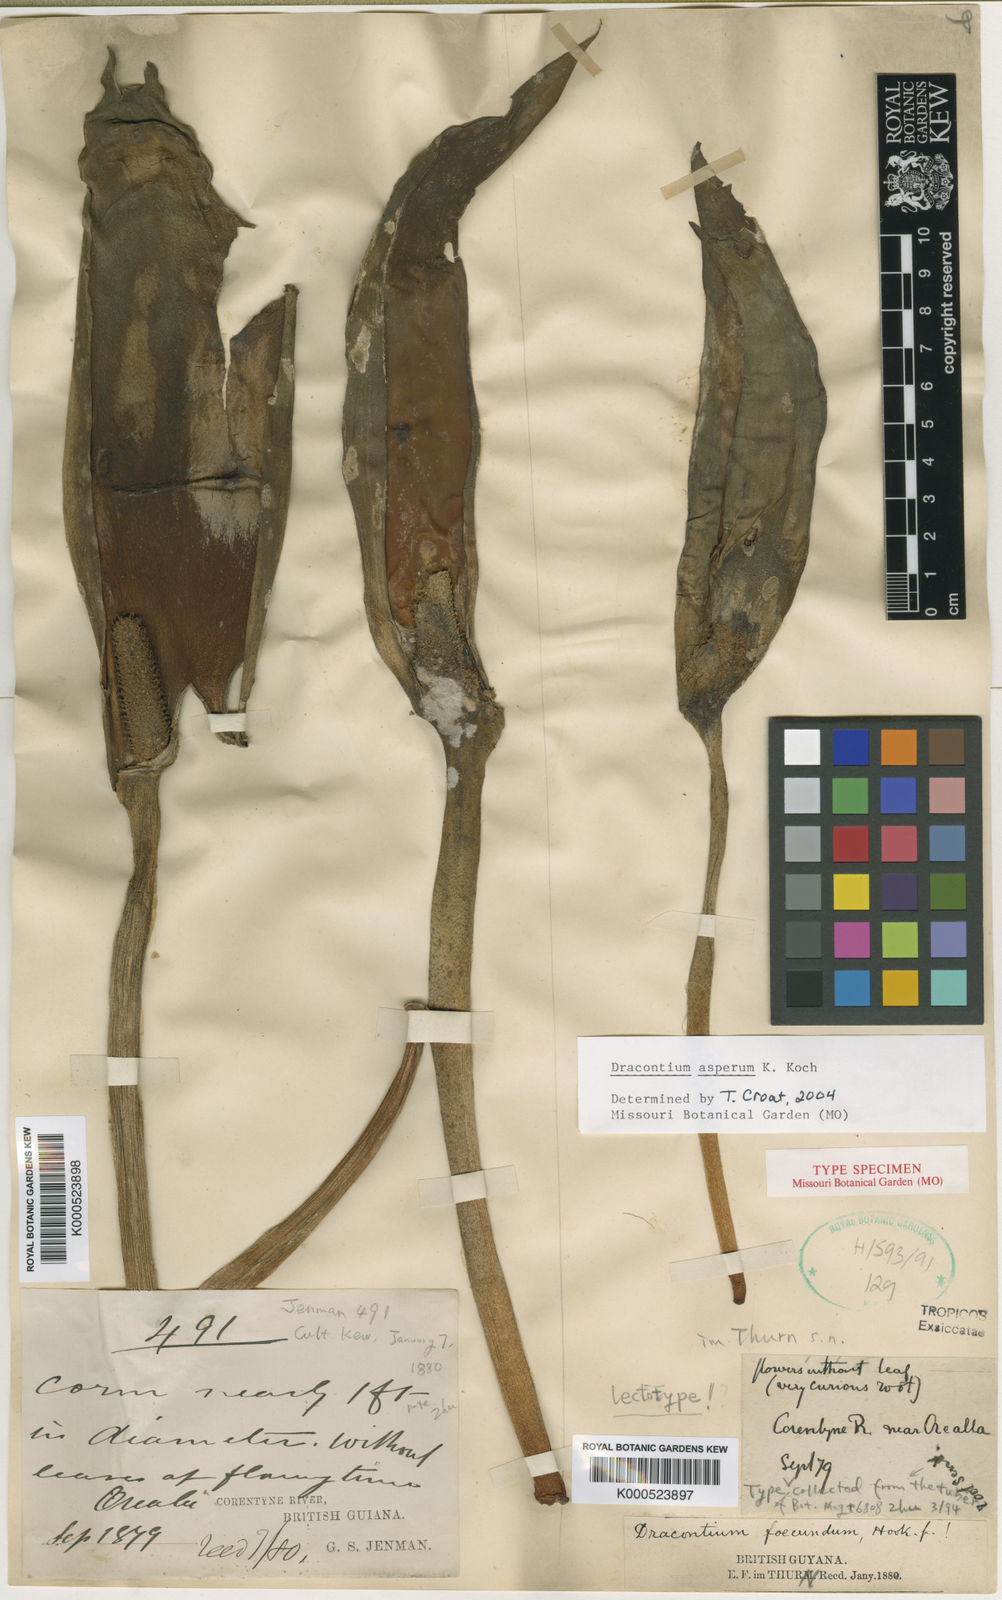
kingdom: Plantae
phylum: Tracheophyta
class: Liliopsida
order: Alismatales
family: Araceae
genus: Dracontium
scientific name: Dracontium asperum
